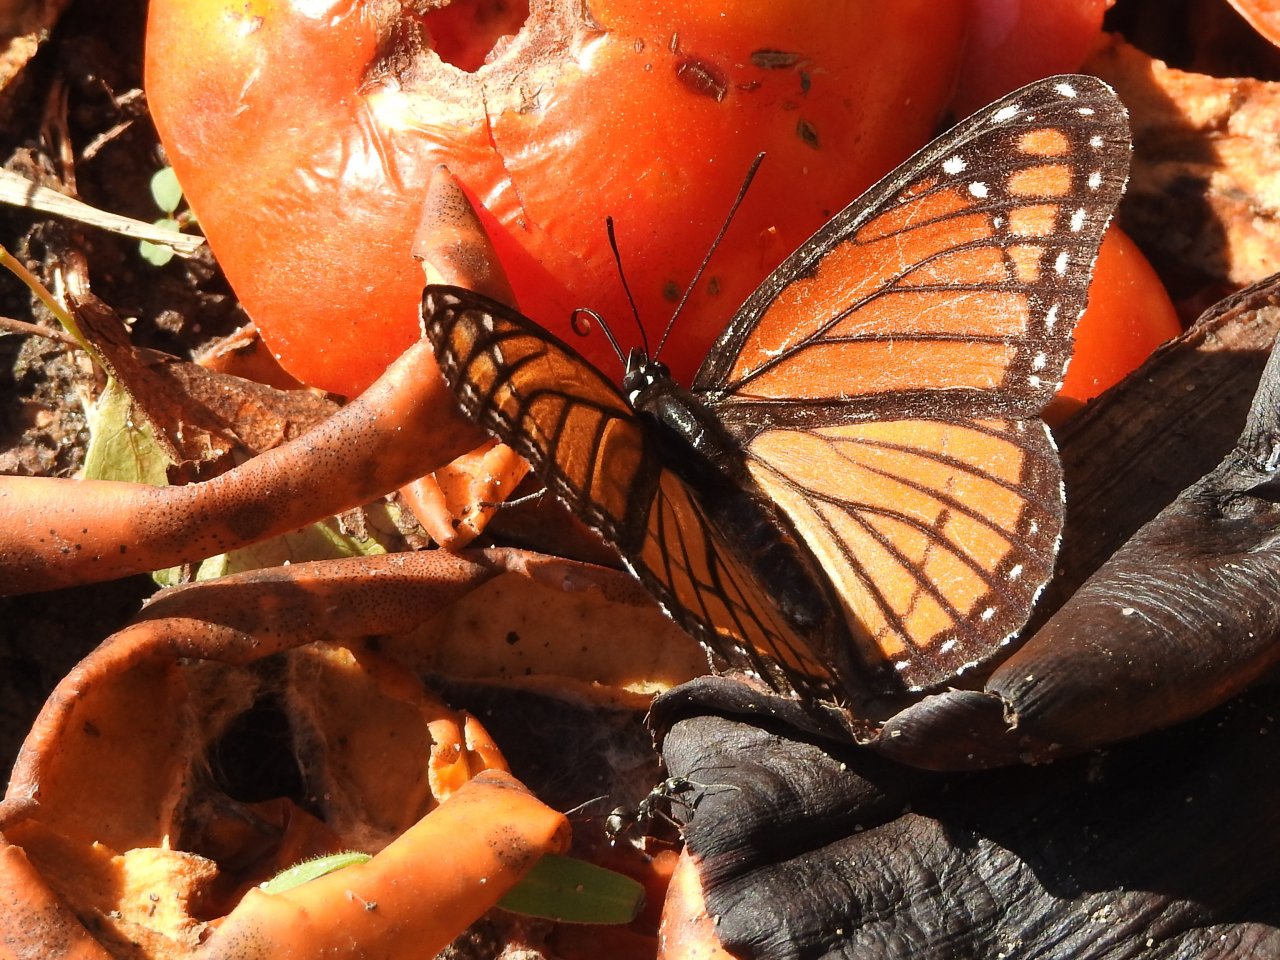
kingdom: Animalia
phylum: Arthropoda
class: Insecta
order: Lepidoptera
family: Nymphalidae
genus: Limenitis
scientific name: Limenitis archippus
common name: Viceroy
